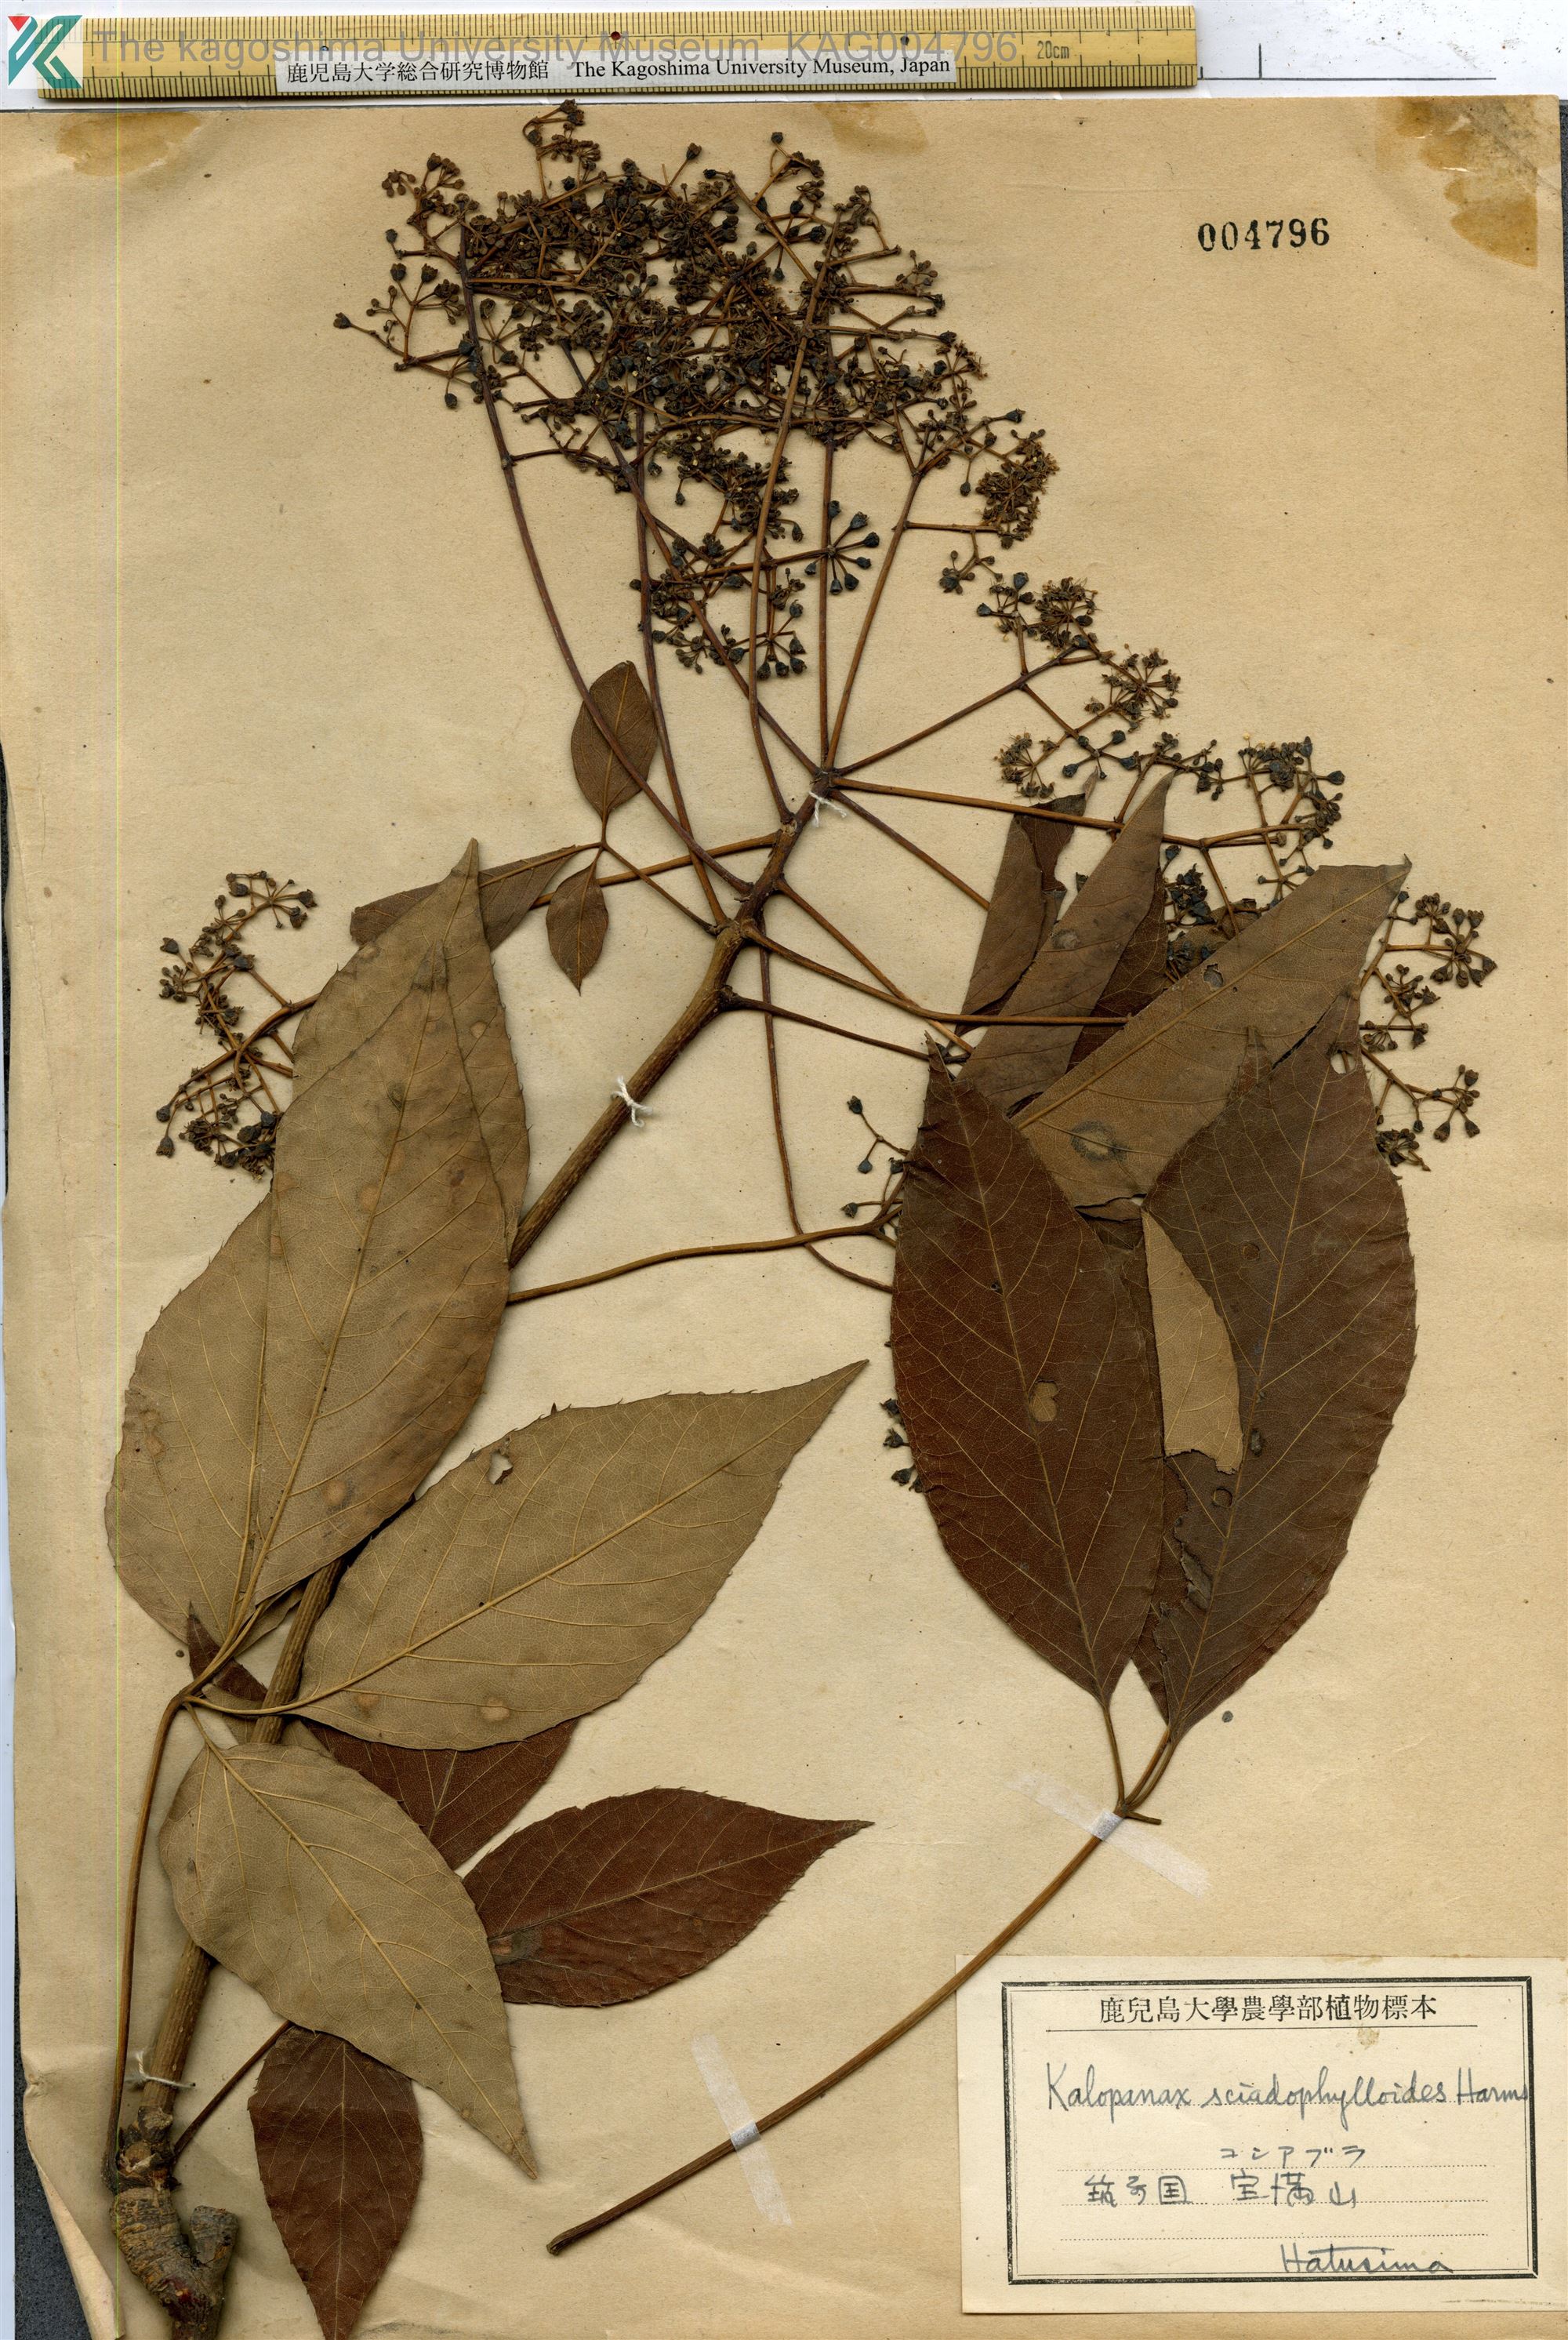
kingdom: Plantae
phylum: Tracheophyta
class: Magnoliopsida
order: Apiales
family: Araliaceae
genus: Chengiopanax
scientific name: Chengiopanax sciadophylloides
